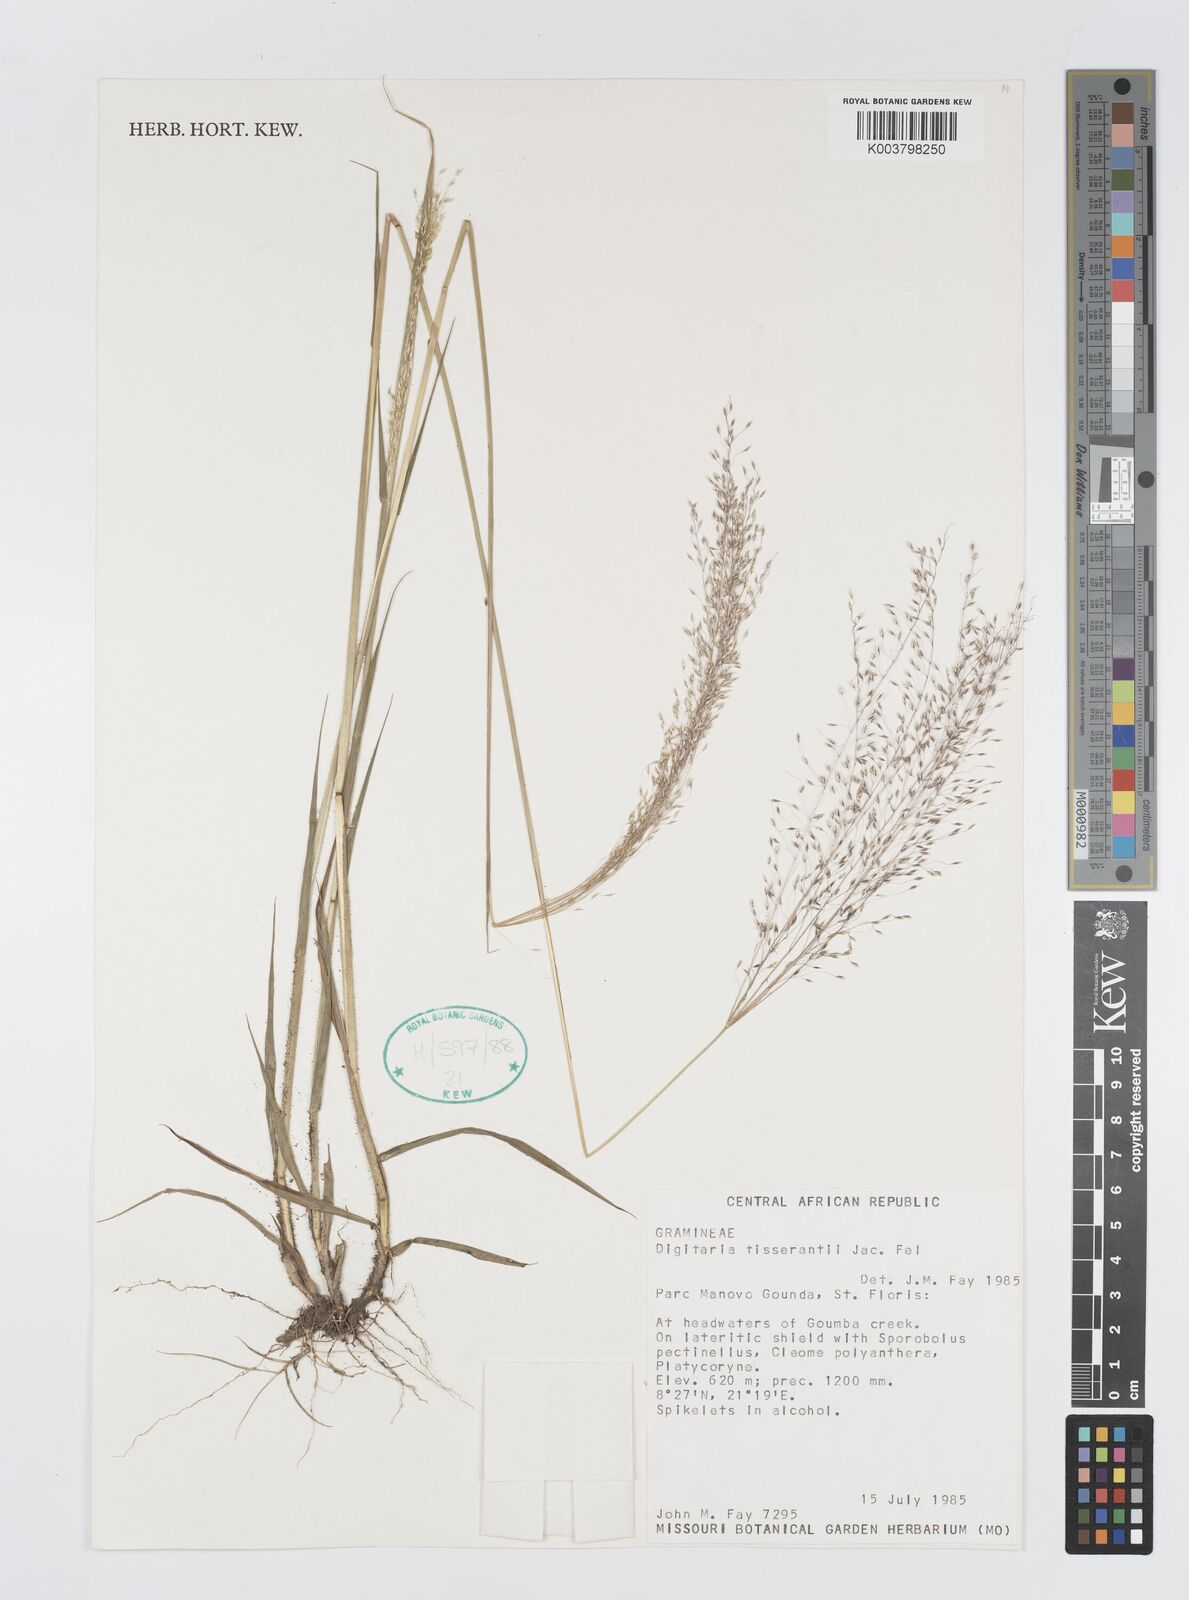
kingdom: Plantae
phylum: Tracheophyta
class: Liliopsida
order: Poales
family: Poaceae
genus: Digitaria
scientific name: Digitaria tisserantii
